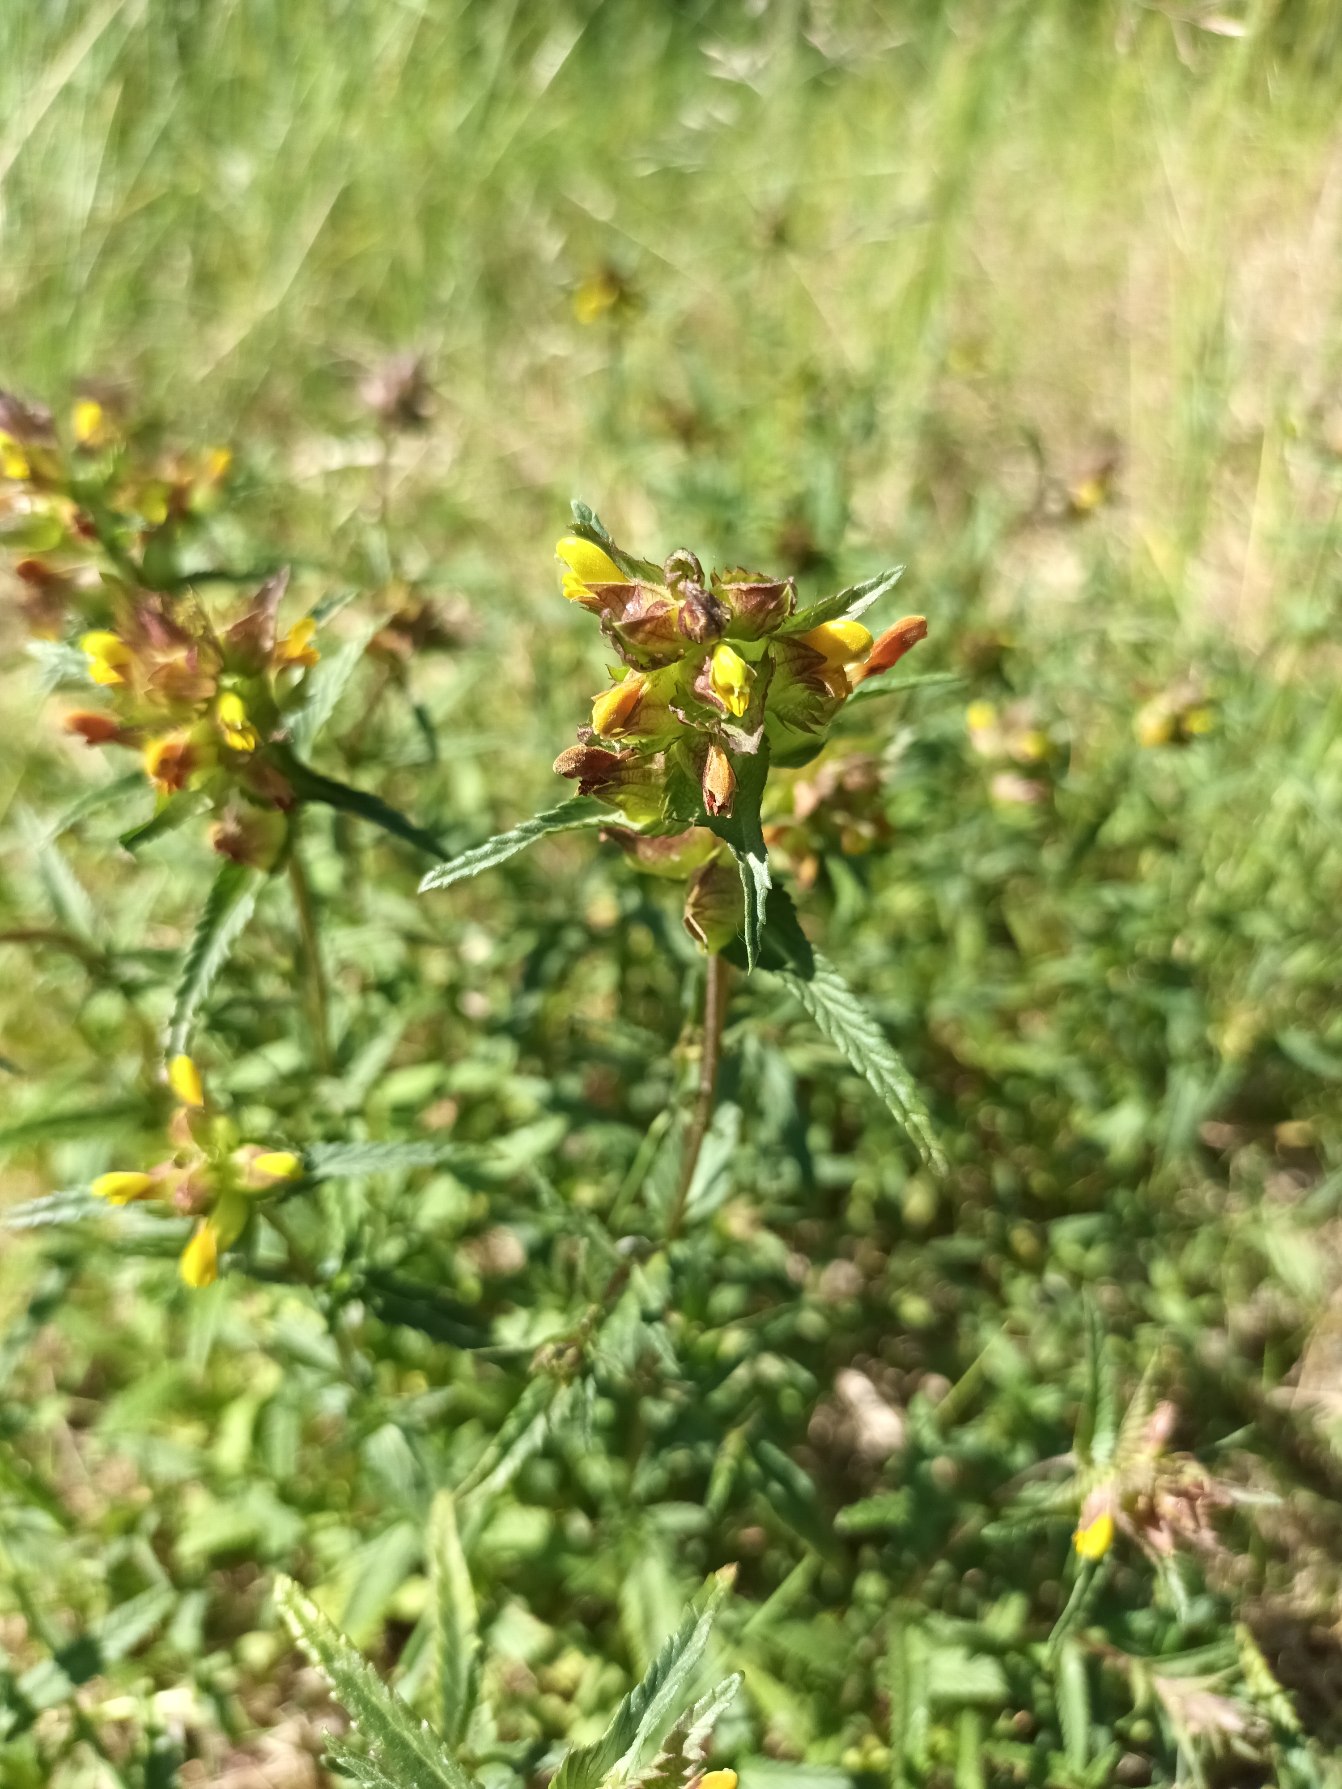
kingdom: Plantae
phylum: Tracheophyta
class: Magnoliopsida
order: Lamiales
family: Orobanchaceae
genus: Rhinanthus
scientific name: Rhinanthus minor
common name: Liden skjaller
